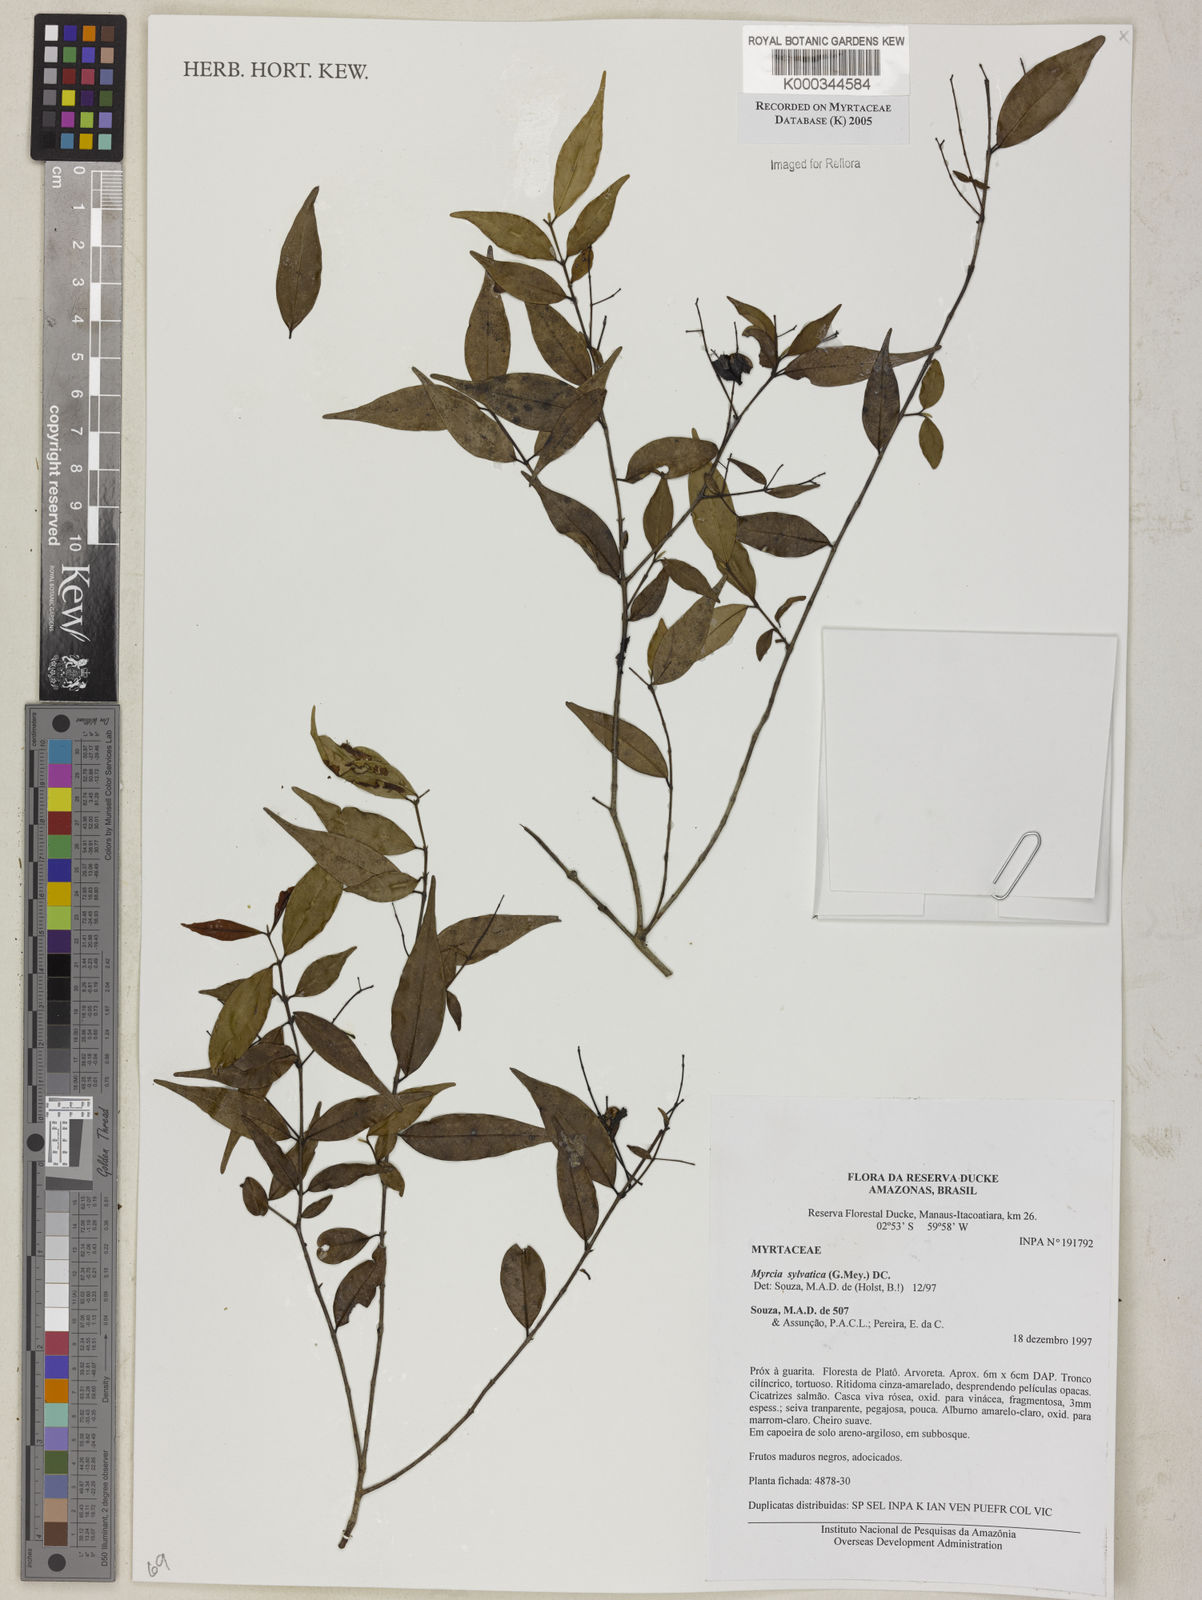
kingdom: Plantae
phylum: Tracheophyta
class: Magnoliopsida
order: Myrtales
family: Myrtaceae
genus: Myrcia
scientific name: Myrcia sylvatica
